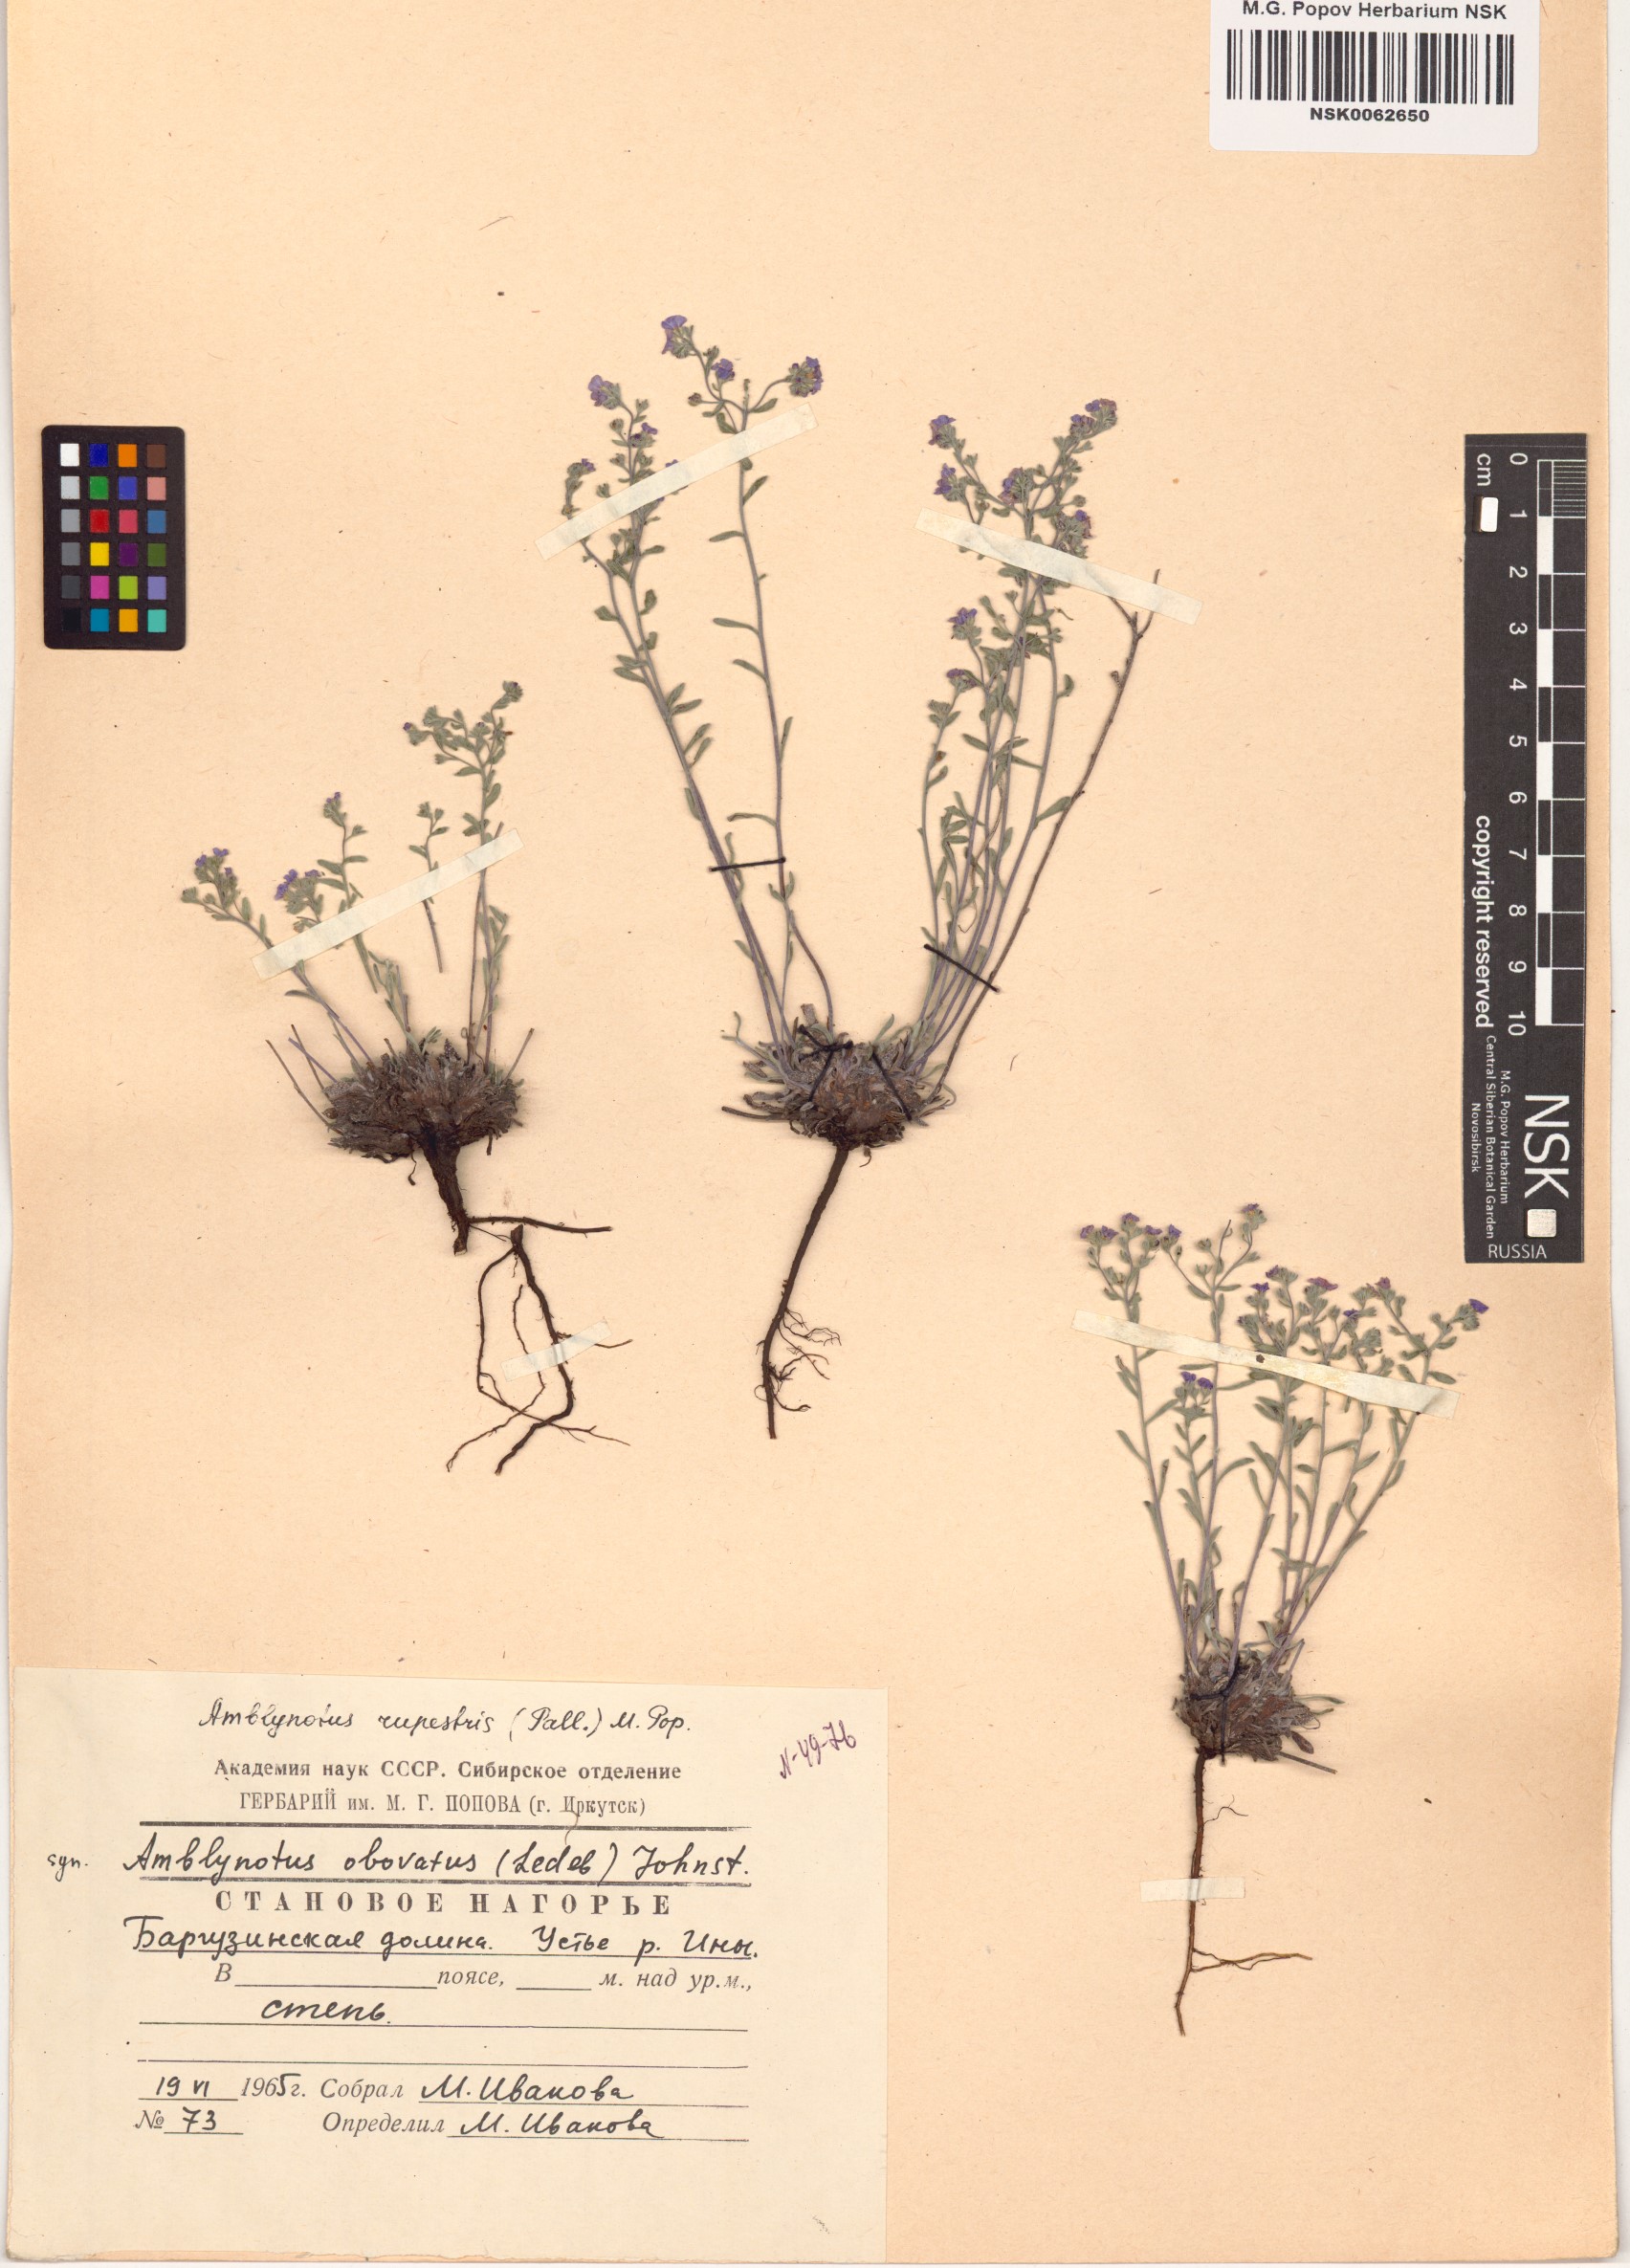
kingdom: Plantae
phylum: Tracheophyta
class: Magnoliopsida
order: Boraginales
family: Boraginaceae
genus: Eritrichium
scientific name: Eritrichium rupestre
